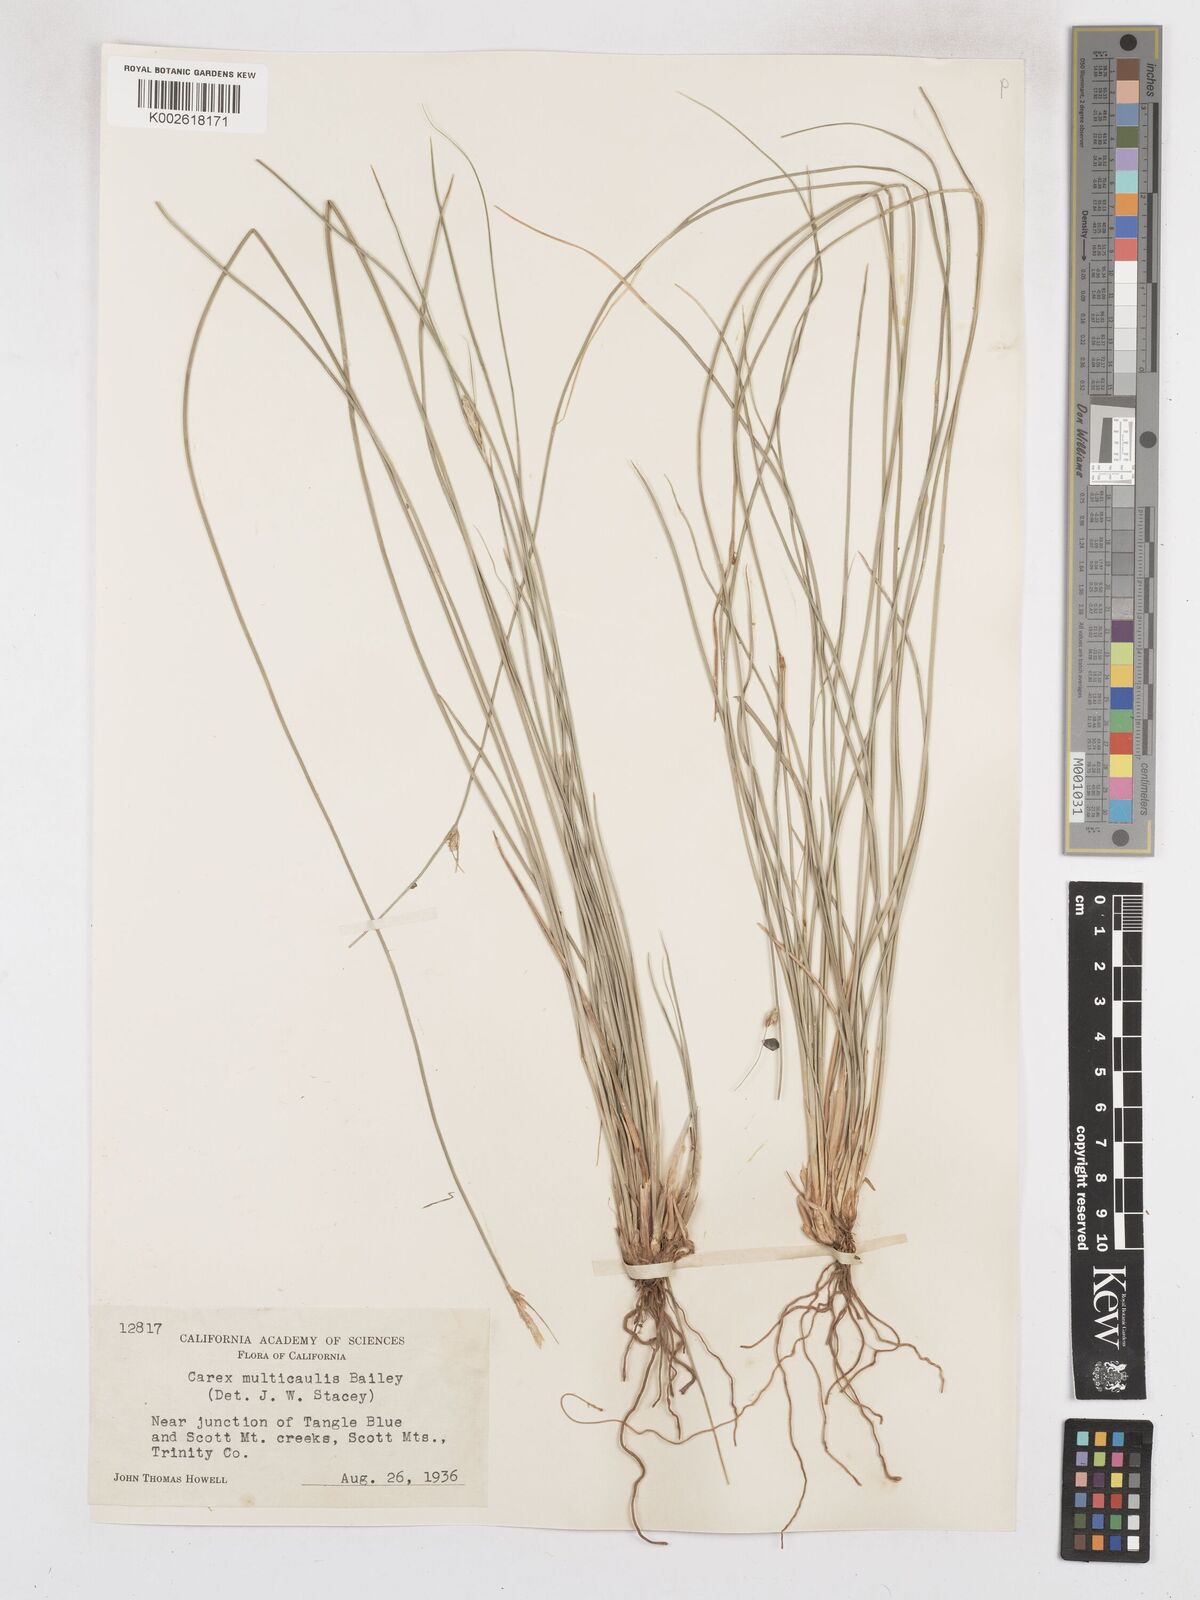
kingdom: Plantae
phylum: Tracheophyta
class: Liliopsida
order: Poales
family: Cyperaceae
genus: Carex
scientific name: Carex multicaulis
